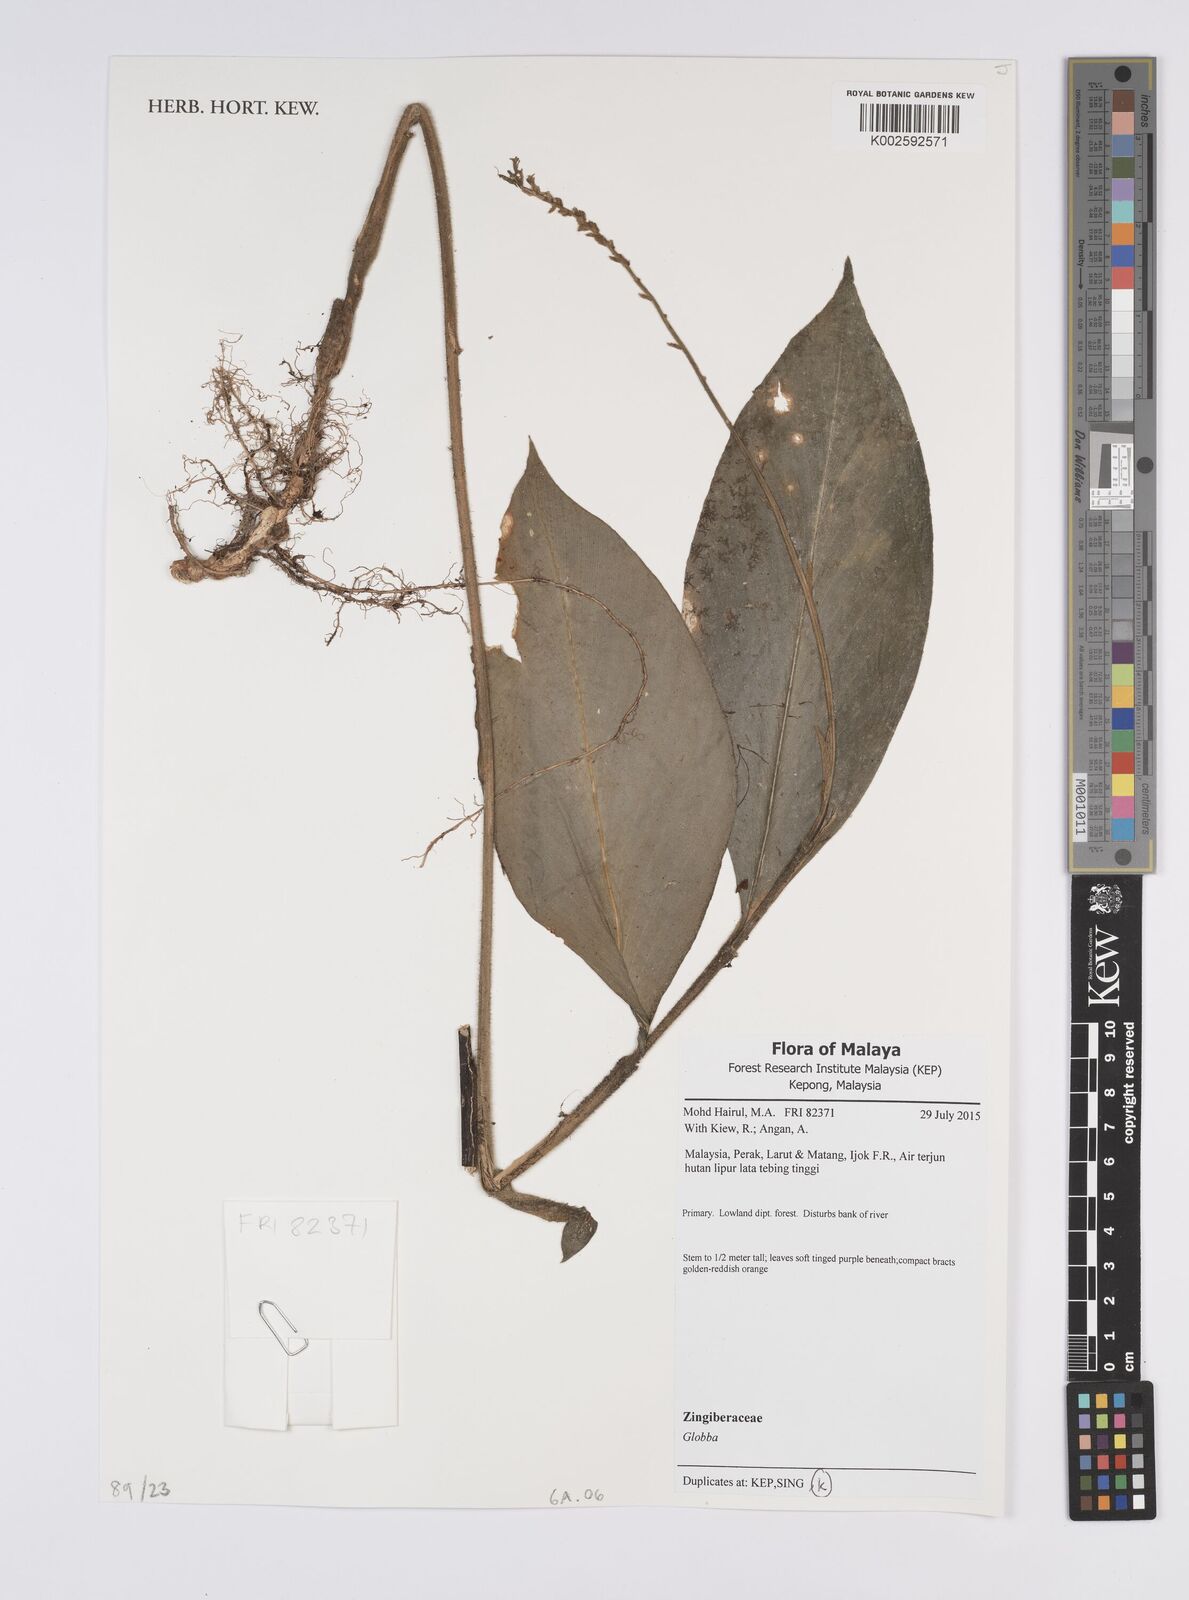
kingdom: Plantae
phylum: Tracheophyta
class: Liliopsida
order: Zingiberales
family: Zingiberaceae
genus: Globba
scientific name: Globba
